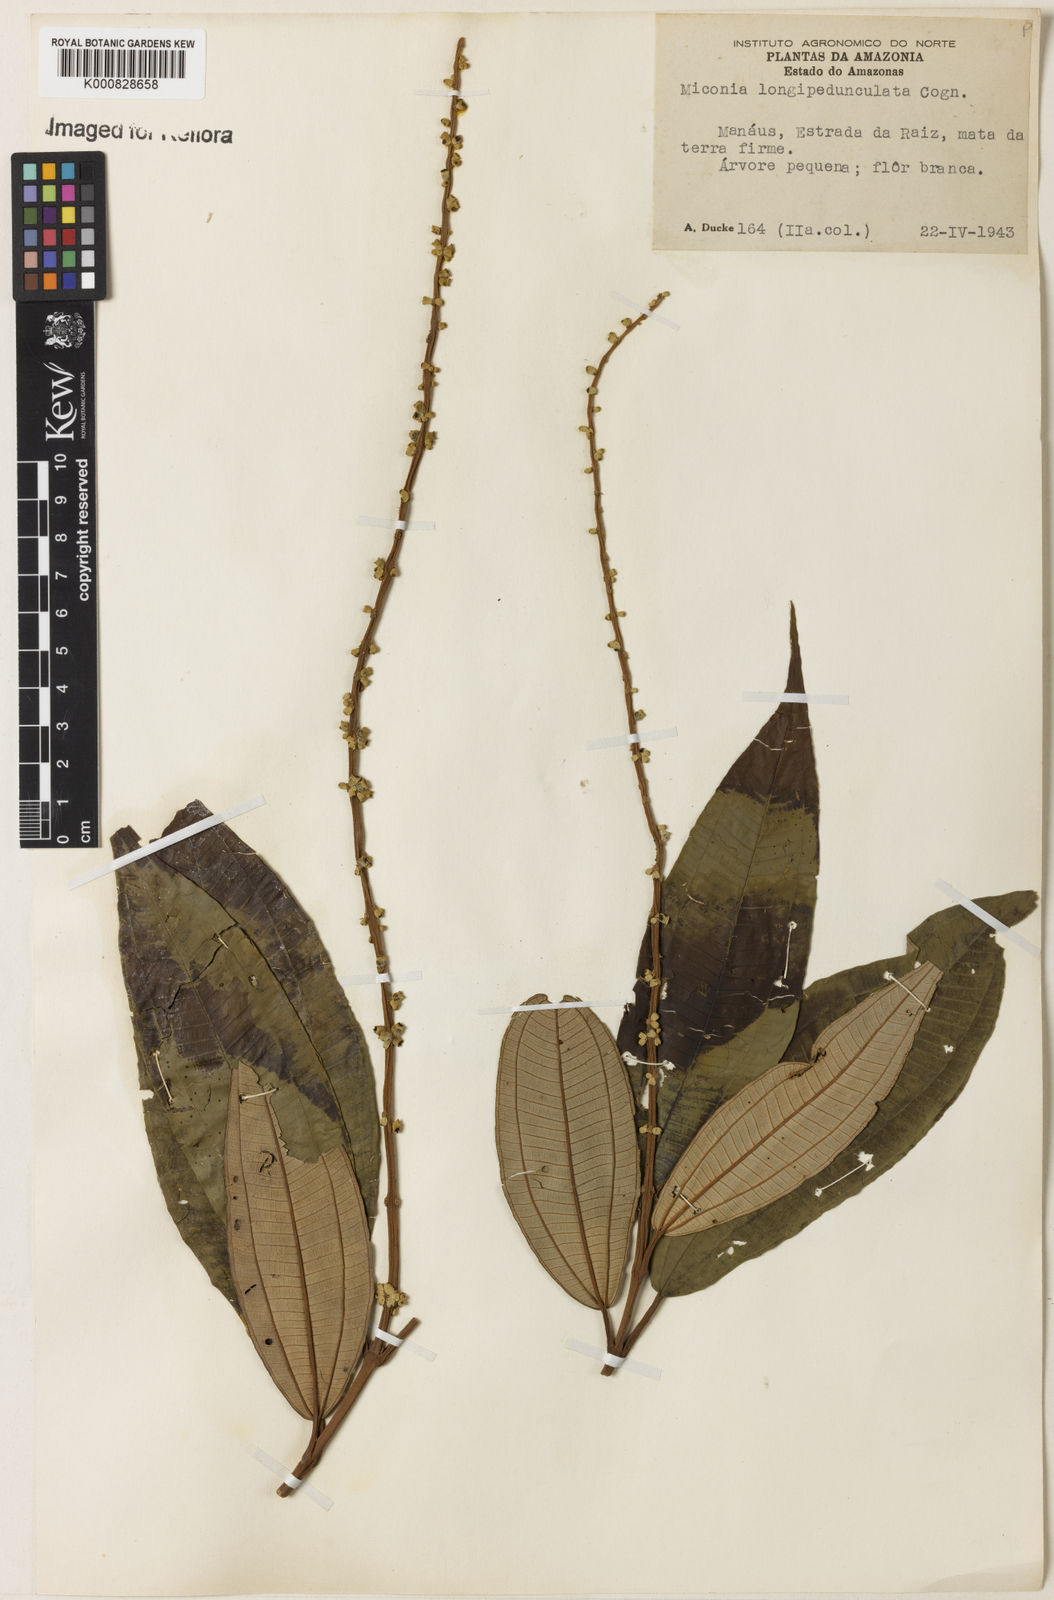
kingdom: Plantae
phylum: Tracheophyta
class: Magnoliopsida
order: Myrtales
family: Melastomataceae
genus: Miconia
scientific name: Miconia longispicata
